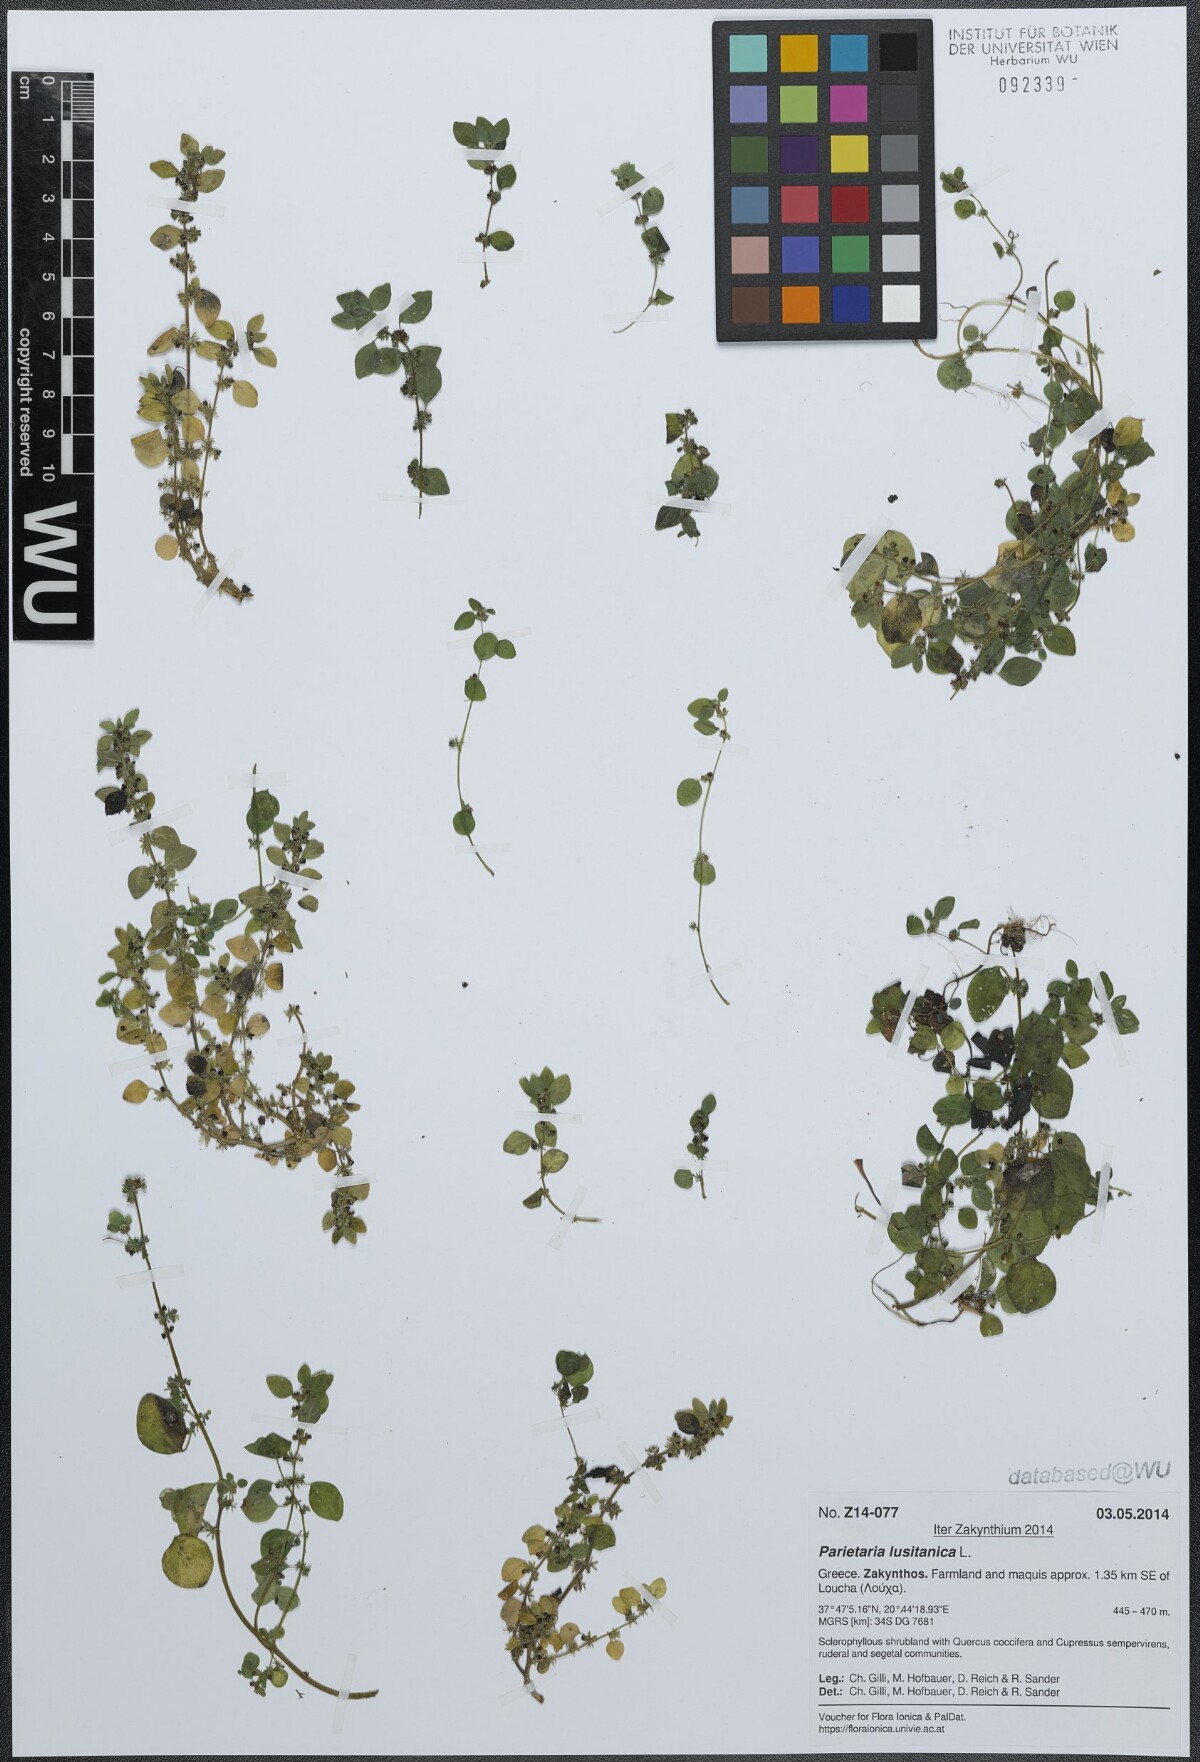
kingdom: Plantae
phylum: Tracheophyta
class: Magnoliopsida
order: Rosales
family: Urticaceae
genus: Parietaria
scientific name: Parietaria lusitanica
